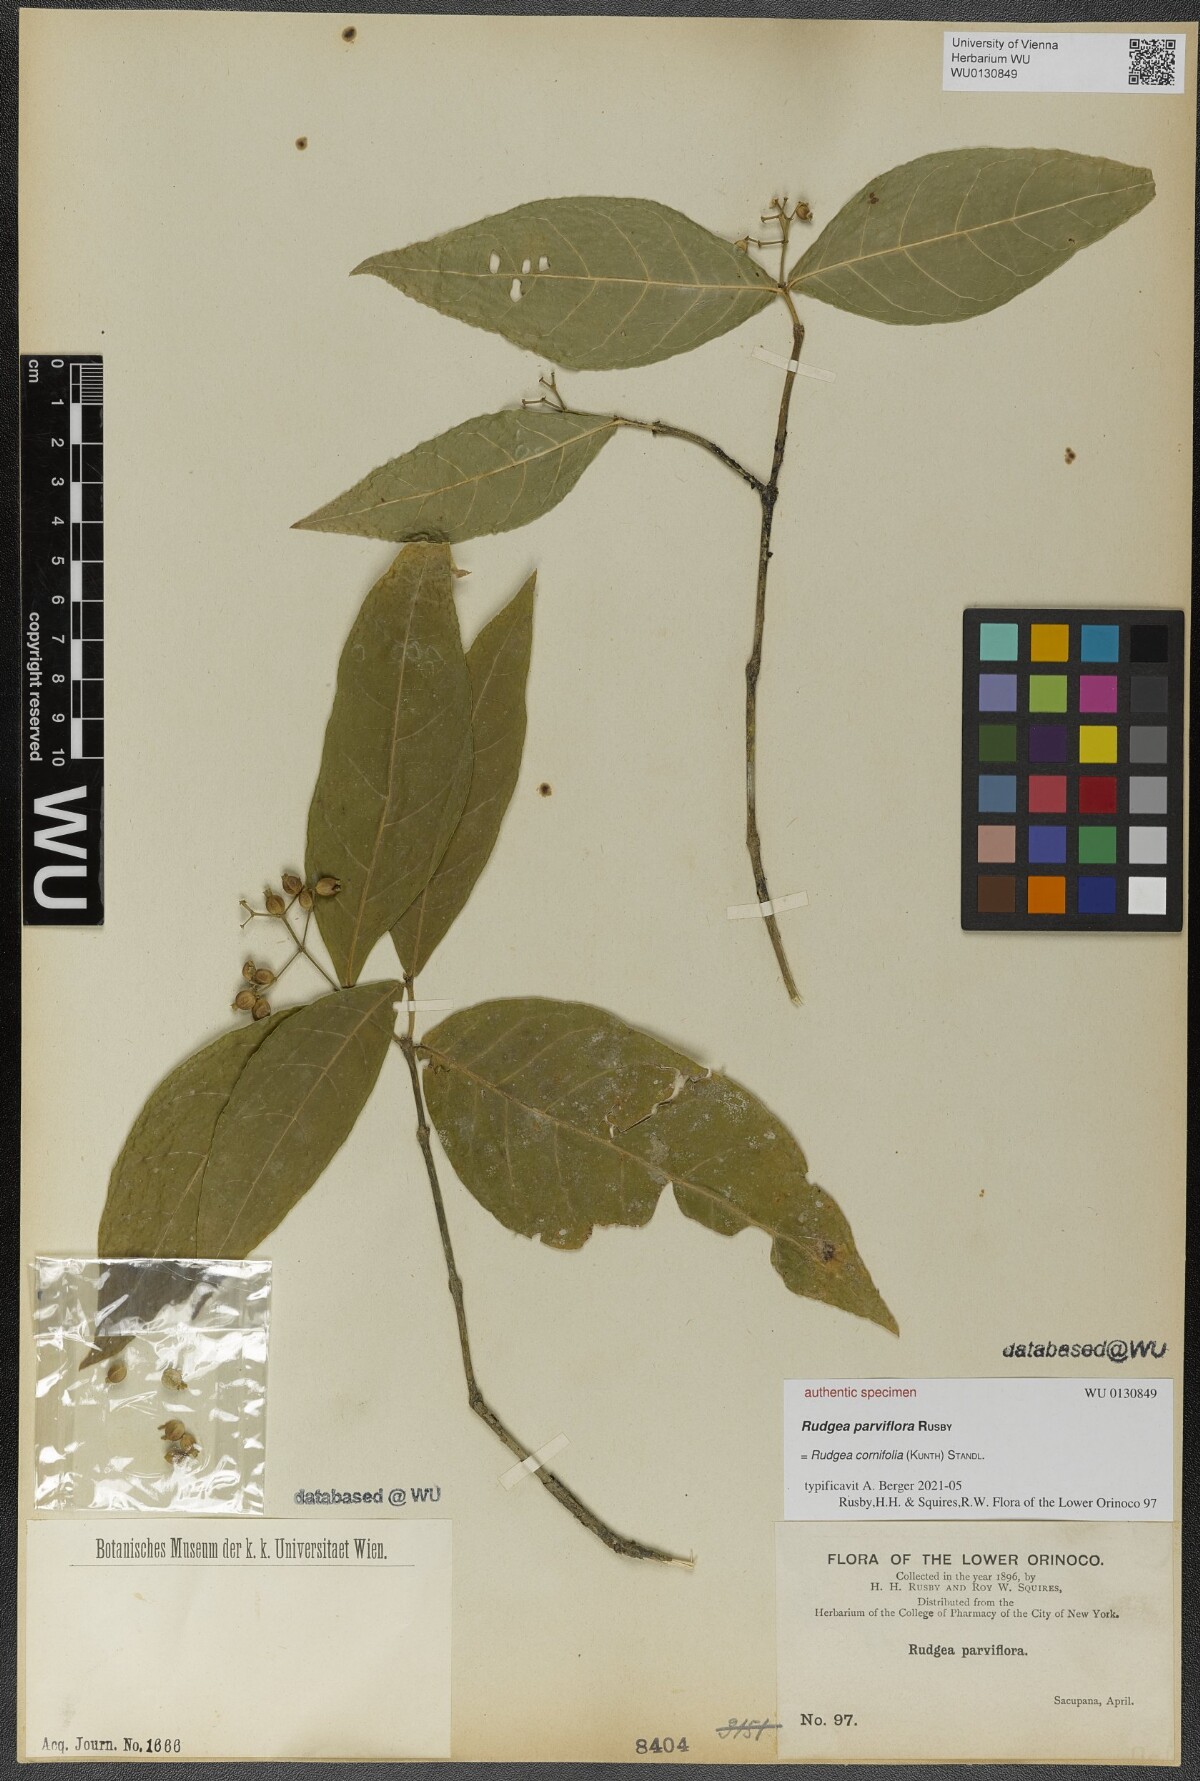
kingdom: Plantae
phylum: Tracheophyta
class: Magnoliopsida
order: Gentianales
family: Rubiaceae
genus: Rudgea
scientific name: Rudgea cornifolia
